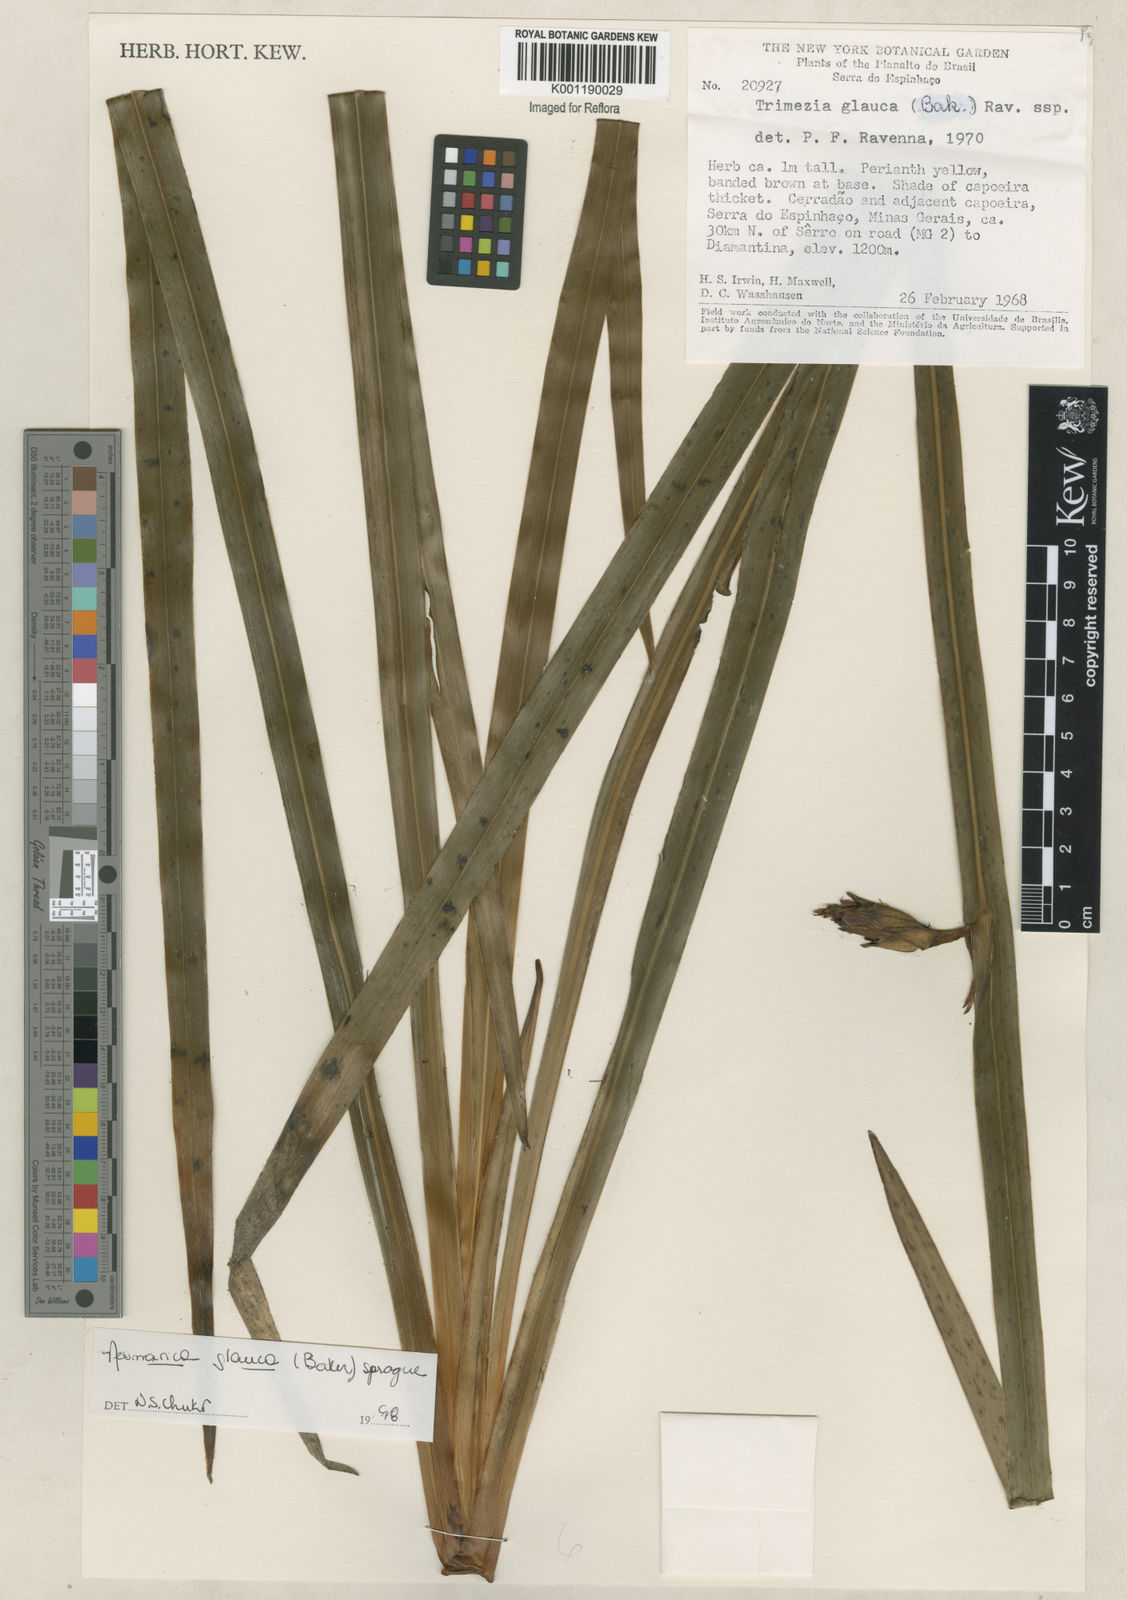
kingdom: Plantae
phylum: Tracheophyta
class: Liliopsida
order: Asparagales
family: Iridaceae
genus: Trimezia
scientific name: Trimezia glauca
